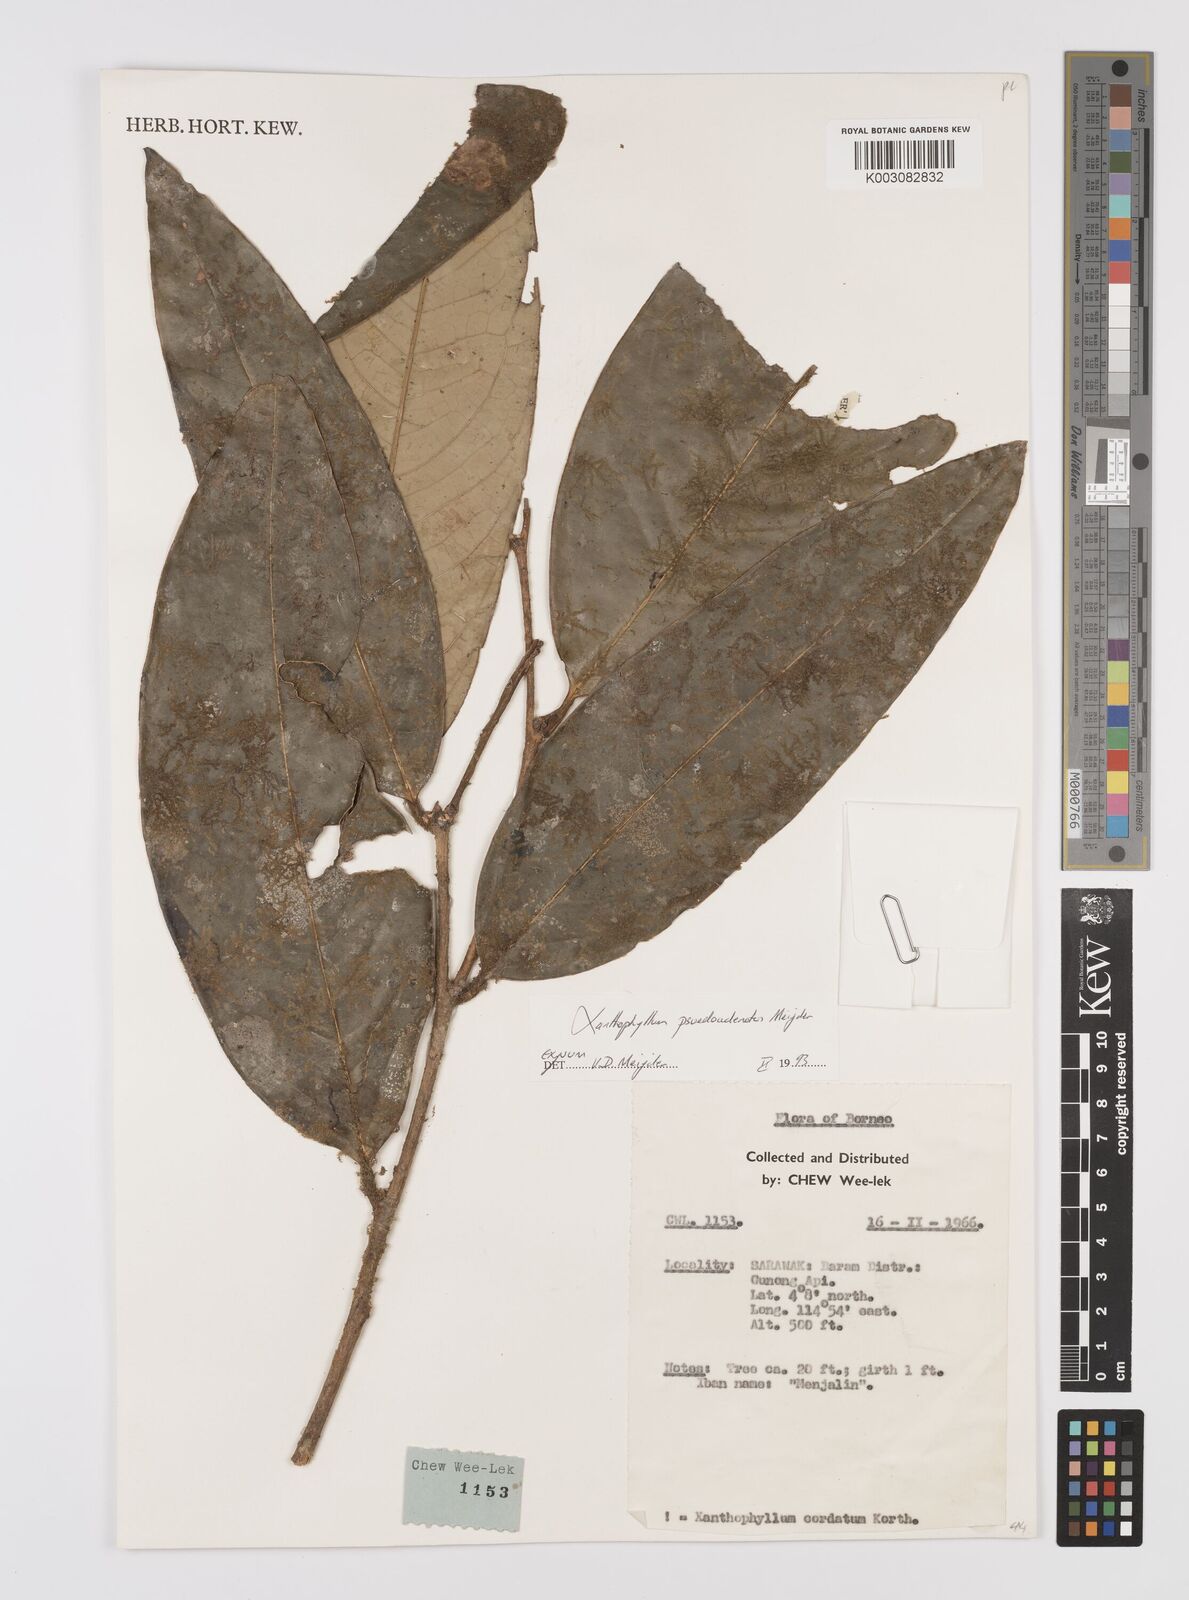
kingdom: Plantae
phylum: Tracheophyta
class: Magnoliopsida
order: Fabales
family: Polygalaceae
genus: Xanthophyllum
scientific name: Xanthophyllum pseudoadenotus
